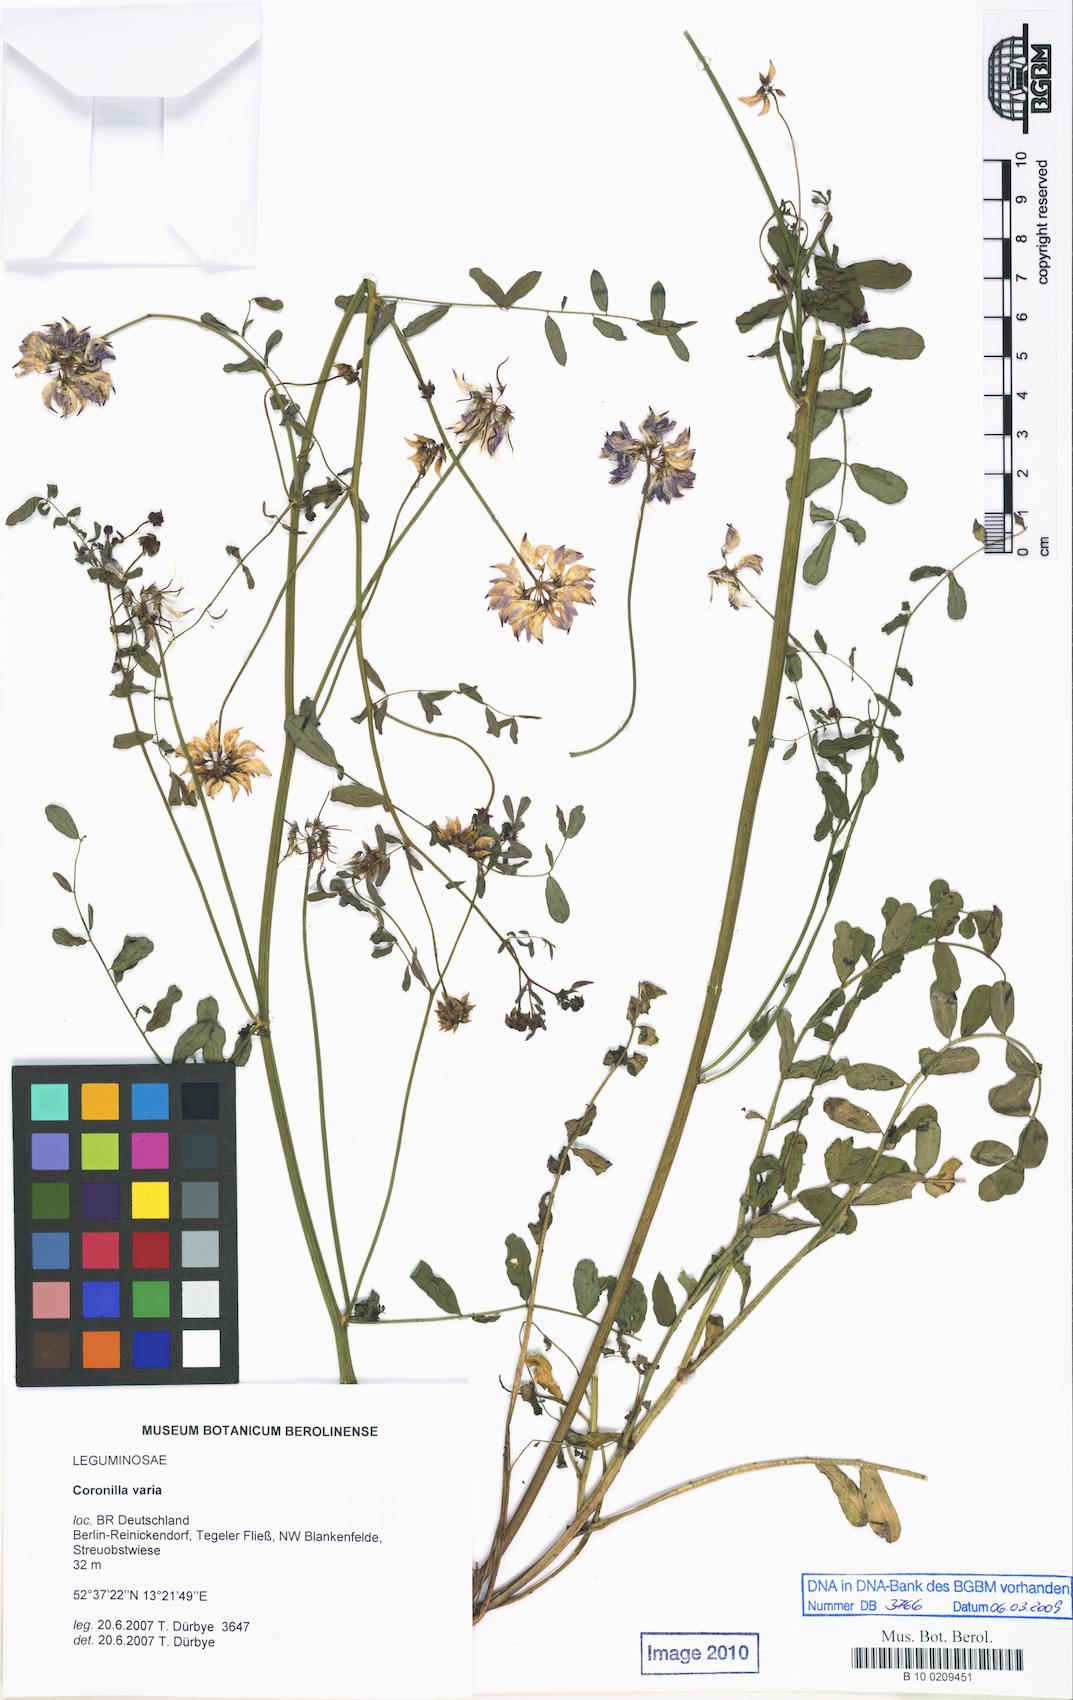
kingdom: Plantae
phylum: Tracheophyta
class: Magnoliopsida
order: Fabales
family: Fabaceae
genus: Coronilla
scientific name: Coronilla varia
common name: Crownvetch
